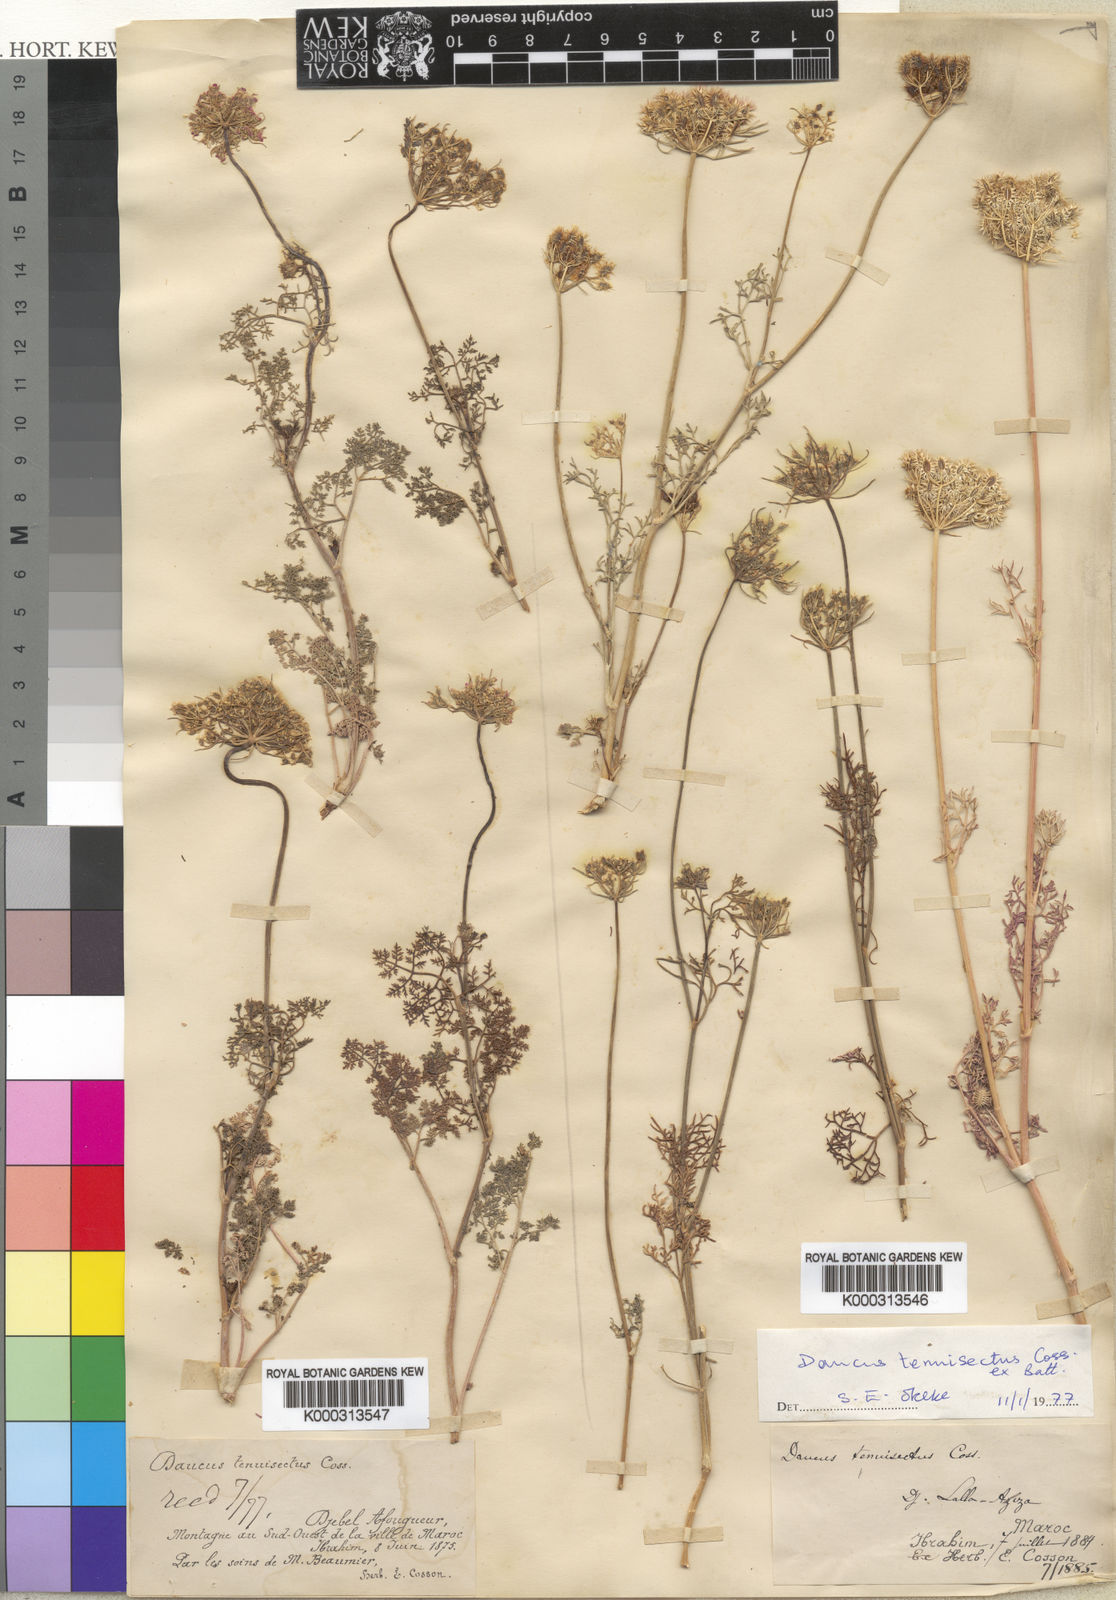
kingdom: Plantae
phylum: Tracheophyta
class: Magnoliopsida
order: Apiales
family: Apiaceae
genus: Daucus
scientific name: Daucus tenuisectus
